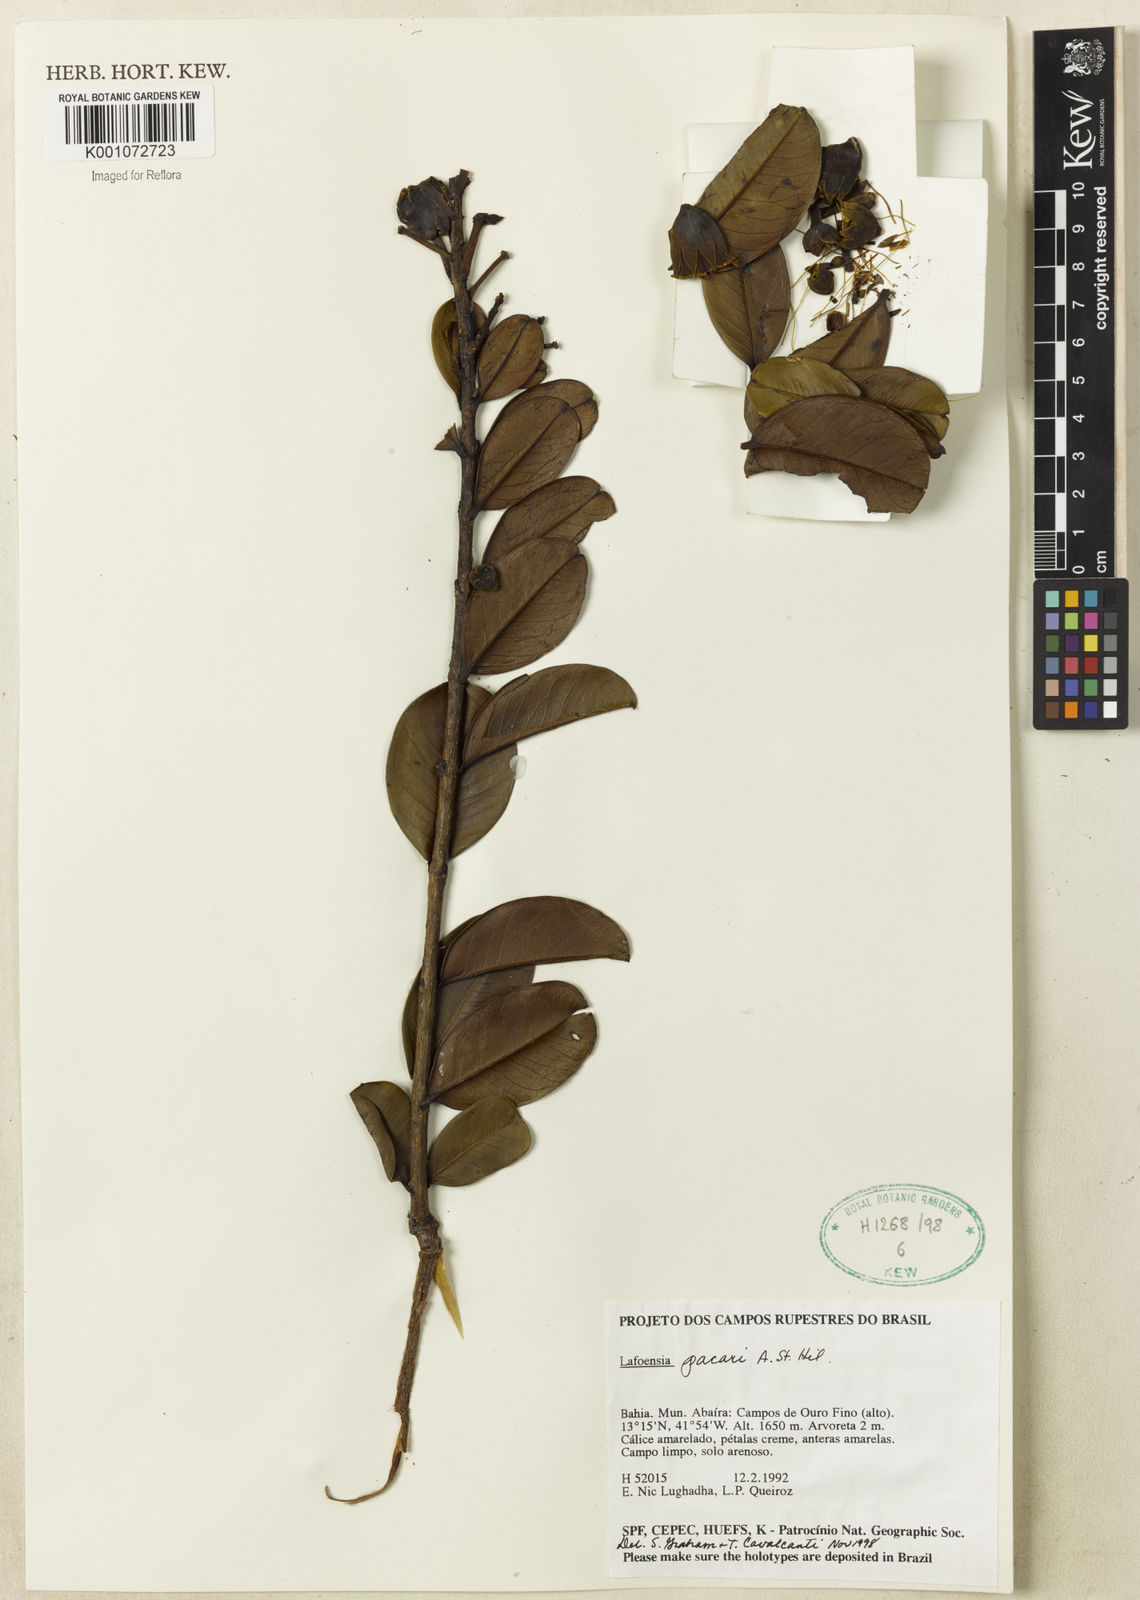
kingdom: Plantae
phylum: Tracheophyta
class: Magnoliopsida
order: Myrtales
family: Lythraceae
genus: Lafoensia
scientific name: Lafoensia pacari
